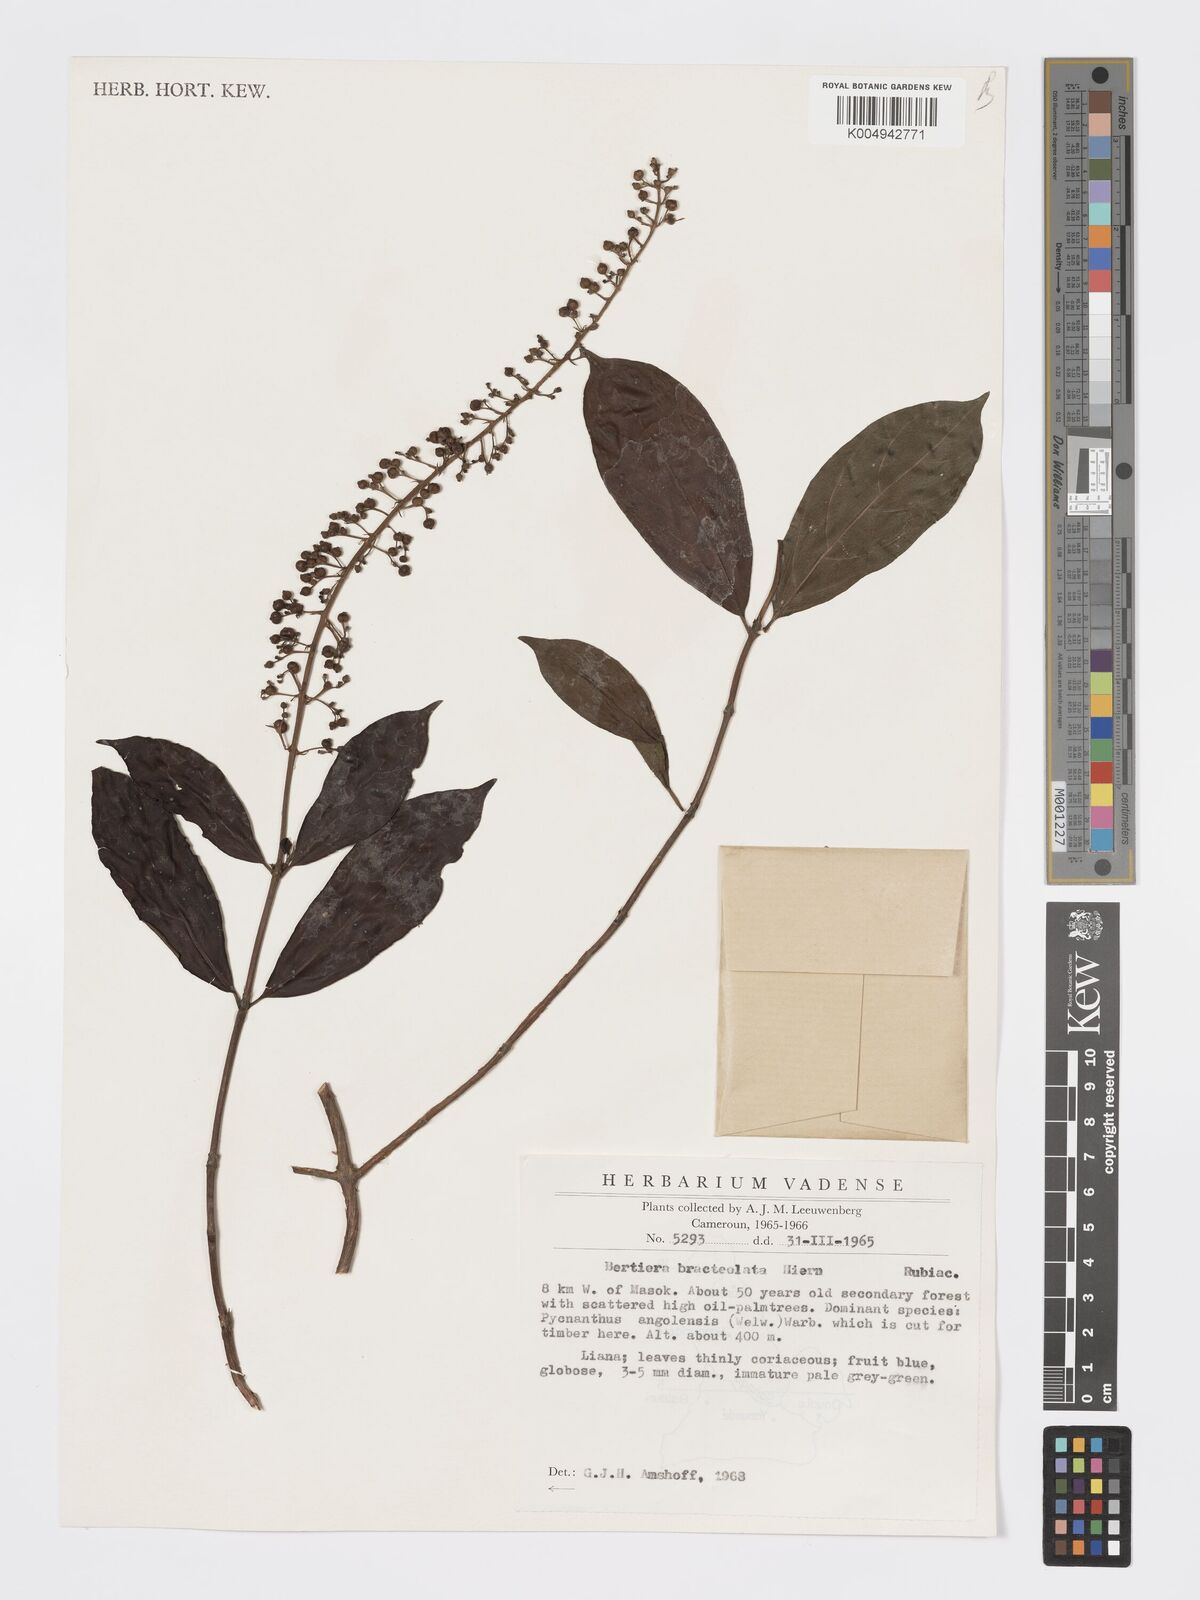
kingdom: Plantae
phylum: Tracheophyta
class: Magnoliopsida
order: Gentianales
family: Rubiaceae
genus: Bertiera
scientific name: Bertiera bracteolata
